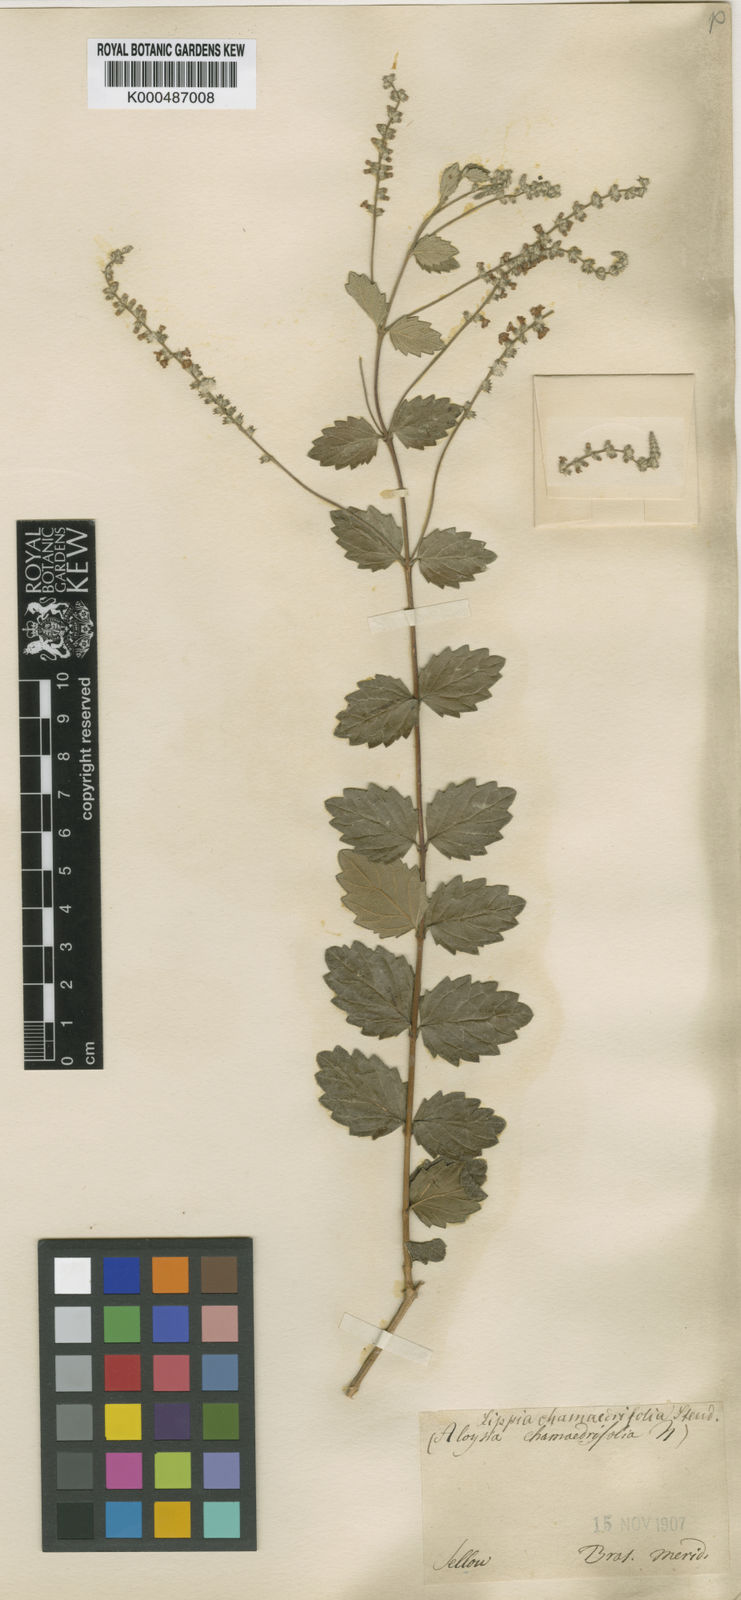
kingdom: Plantae
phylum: Tracheophyta
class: Magnoliopsida
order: Lamiales
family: Verbenaceae
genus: Aloysia
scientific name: Aloysia chamaedryfolia
